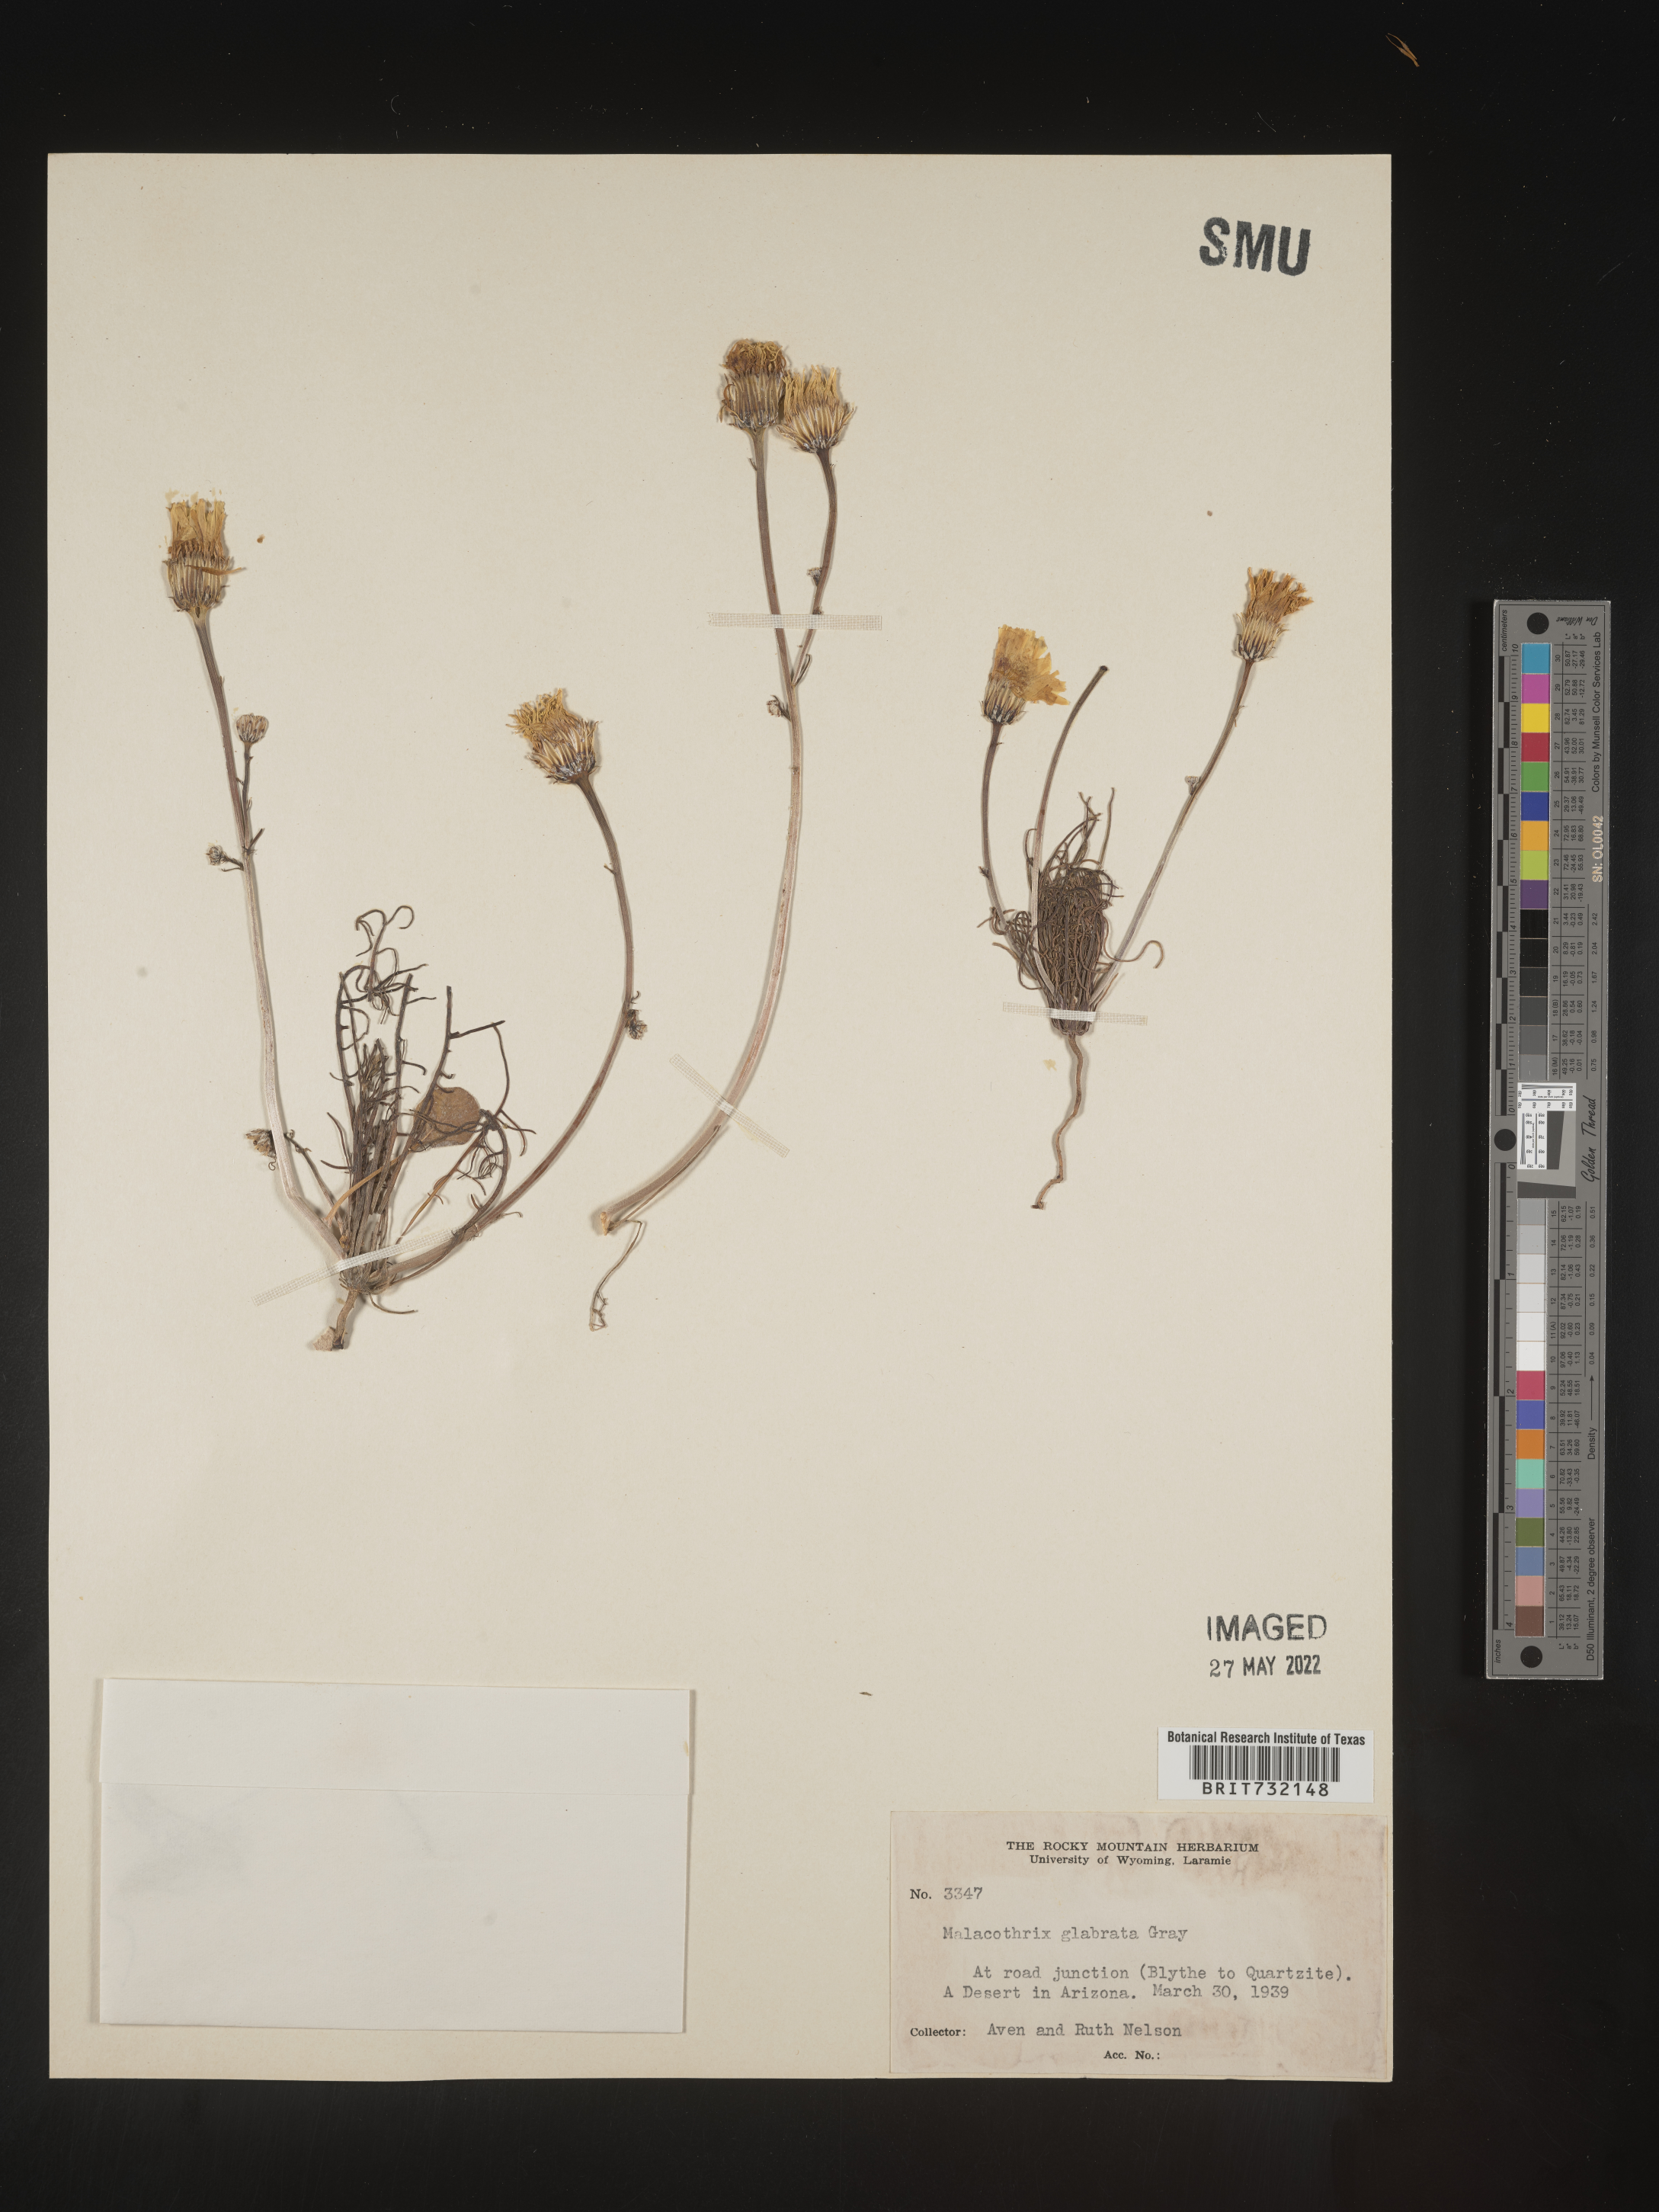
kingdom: Plantae
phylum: Tracheophyta
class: Magnoliopsida
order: Asterales
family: Asteraceae
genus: Malacothrix
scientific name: Malacothrix glabrata
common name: Smooth desert-dandelion
